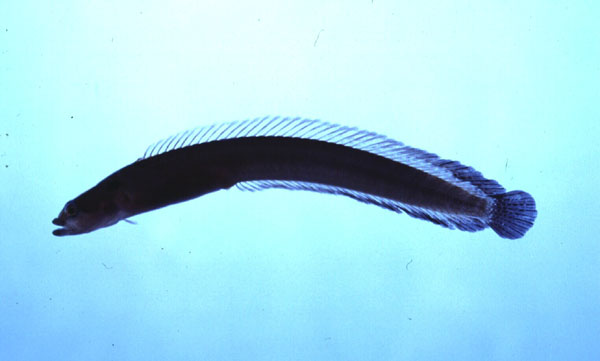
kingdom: Animalia
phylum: Chordata
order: Perciformes
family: Pseudochromidae
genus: Natalichthys
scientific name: Natalichthys sam
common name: Nail snakelet
